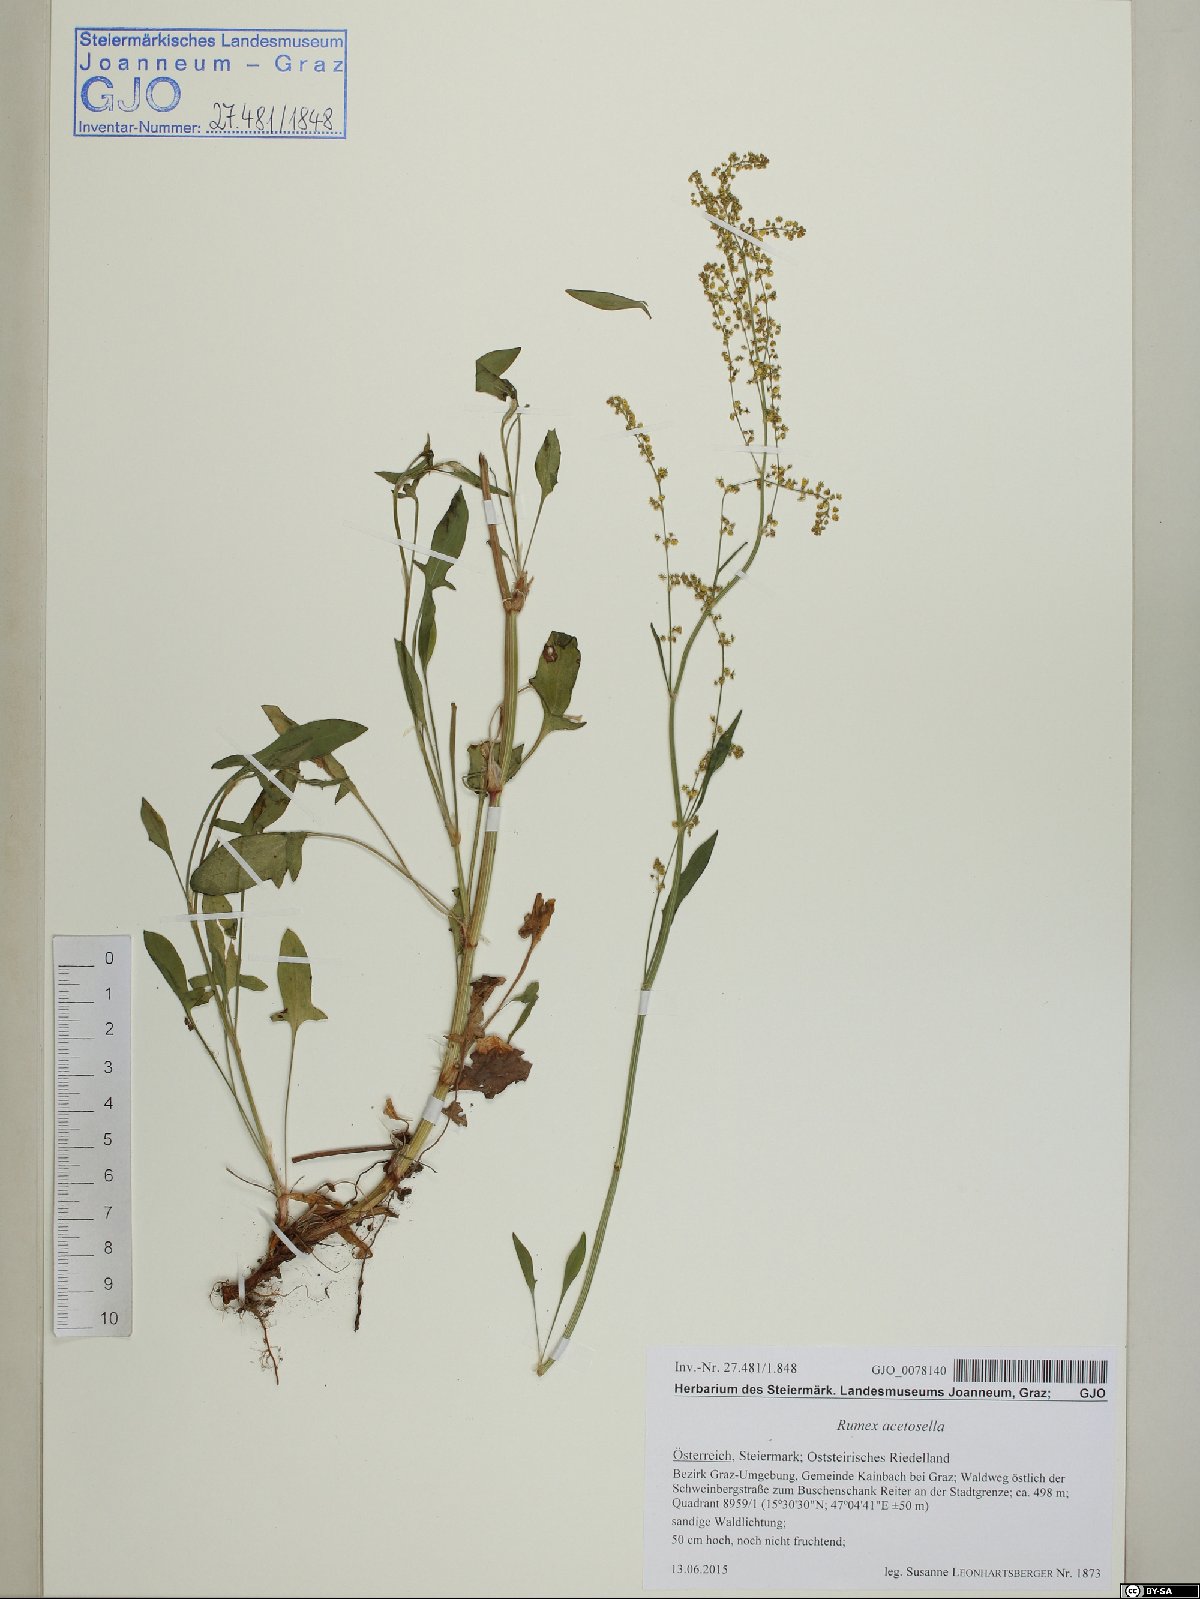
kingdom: Plantae
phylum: Tracheophyta
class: Magnoliopsida
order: Caryophyllales
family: Polygonaceae
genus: Rumex
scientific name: Rumex acetosella
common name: Common sheep sorrel
